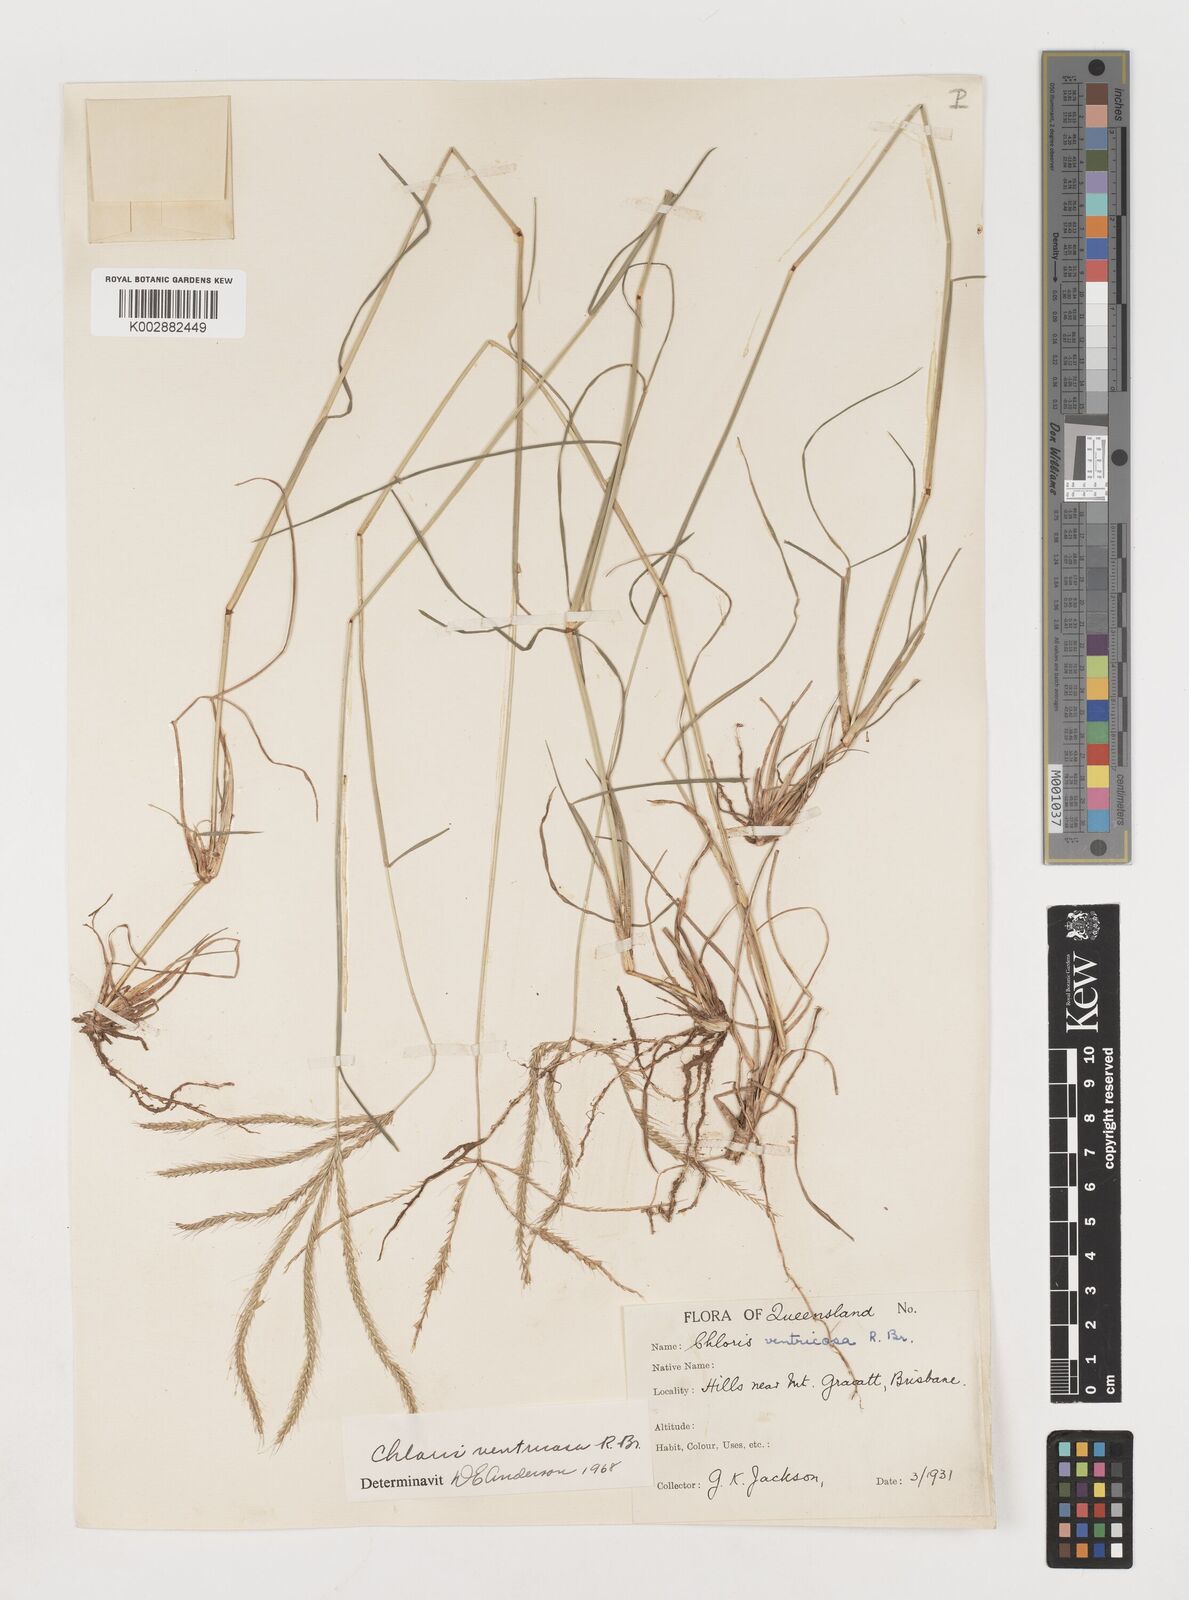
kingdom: Plantae
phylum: Tracheophyta
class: Liliopsida
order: Poales
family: Poaceae
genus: Chloris
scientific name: Chloris ventricosa
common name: Australian windmill grass
